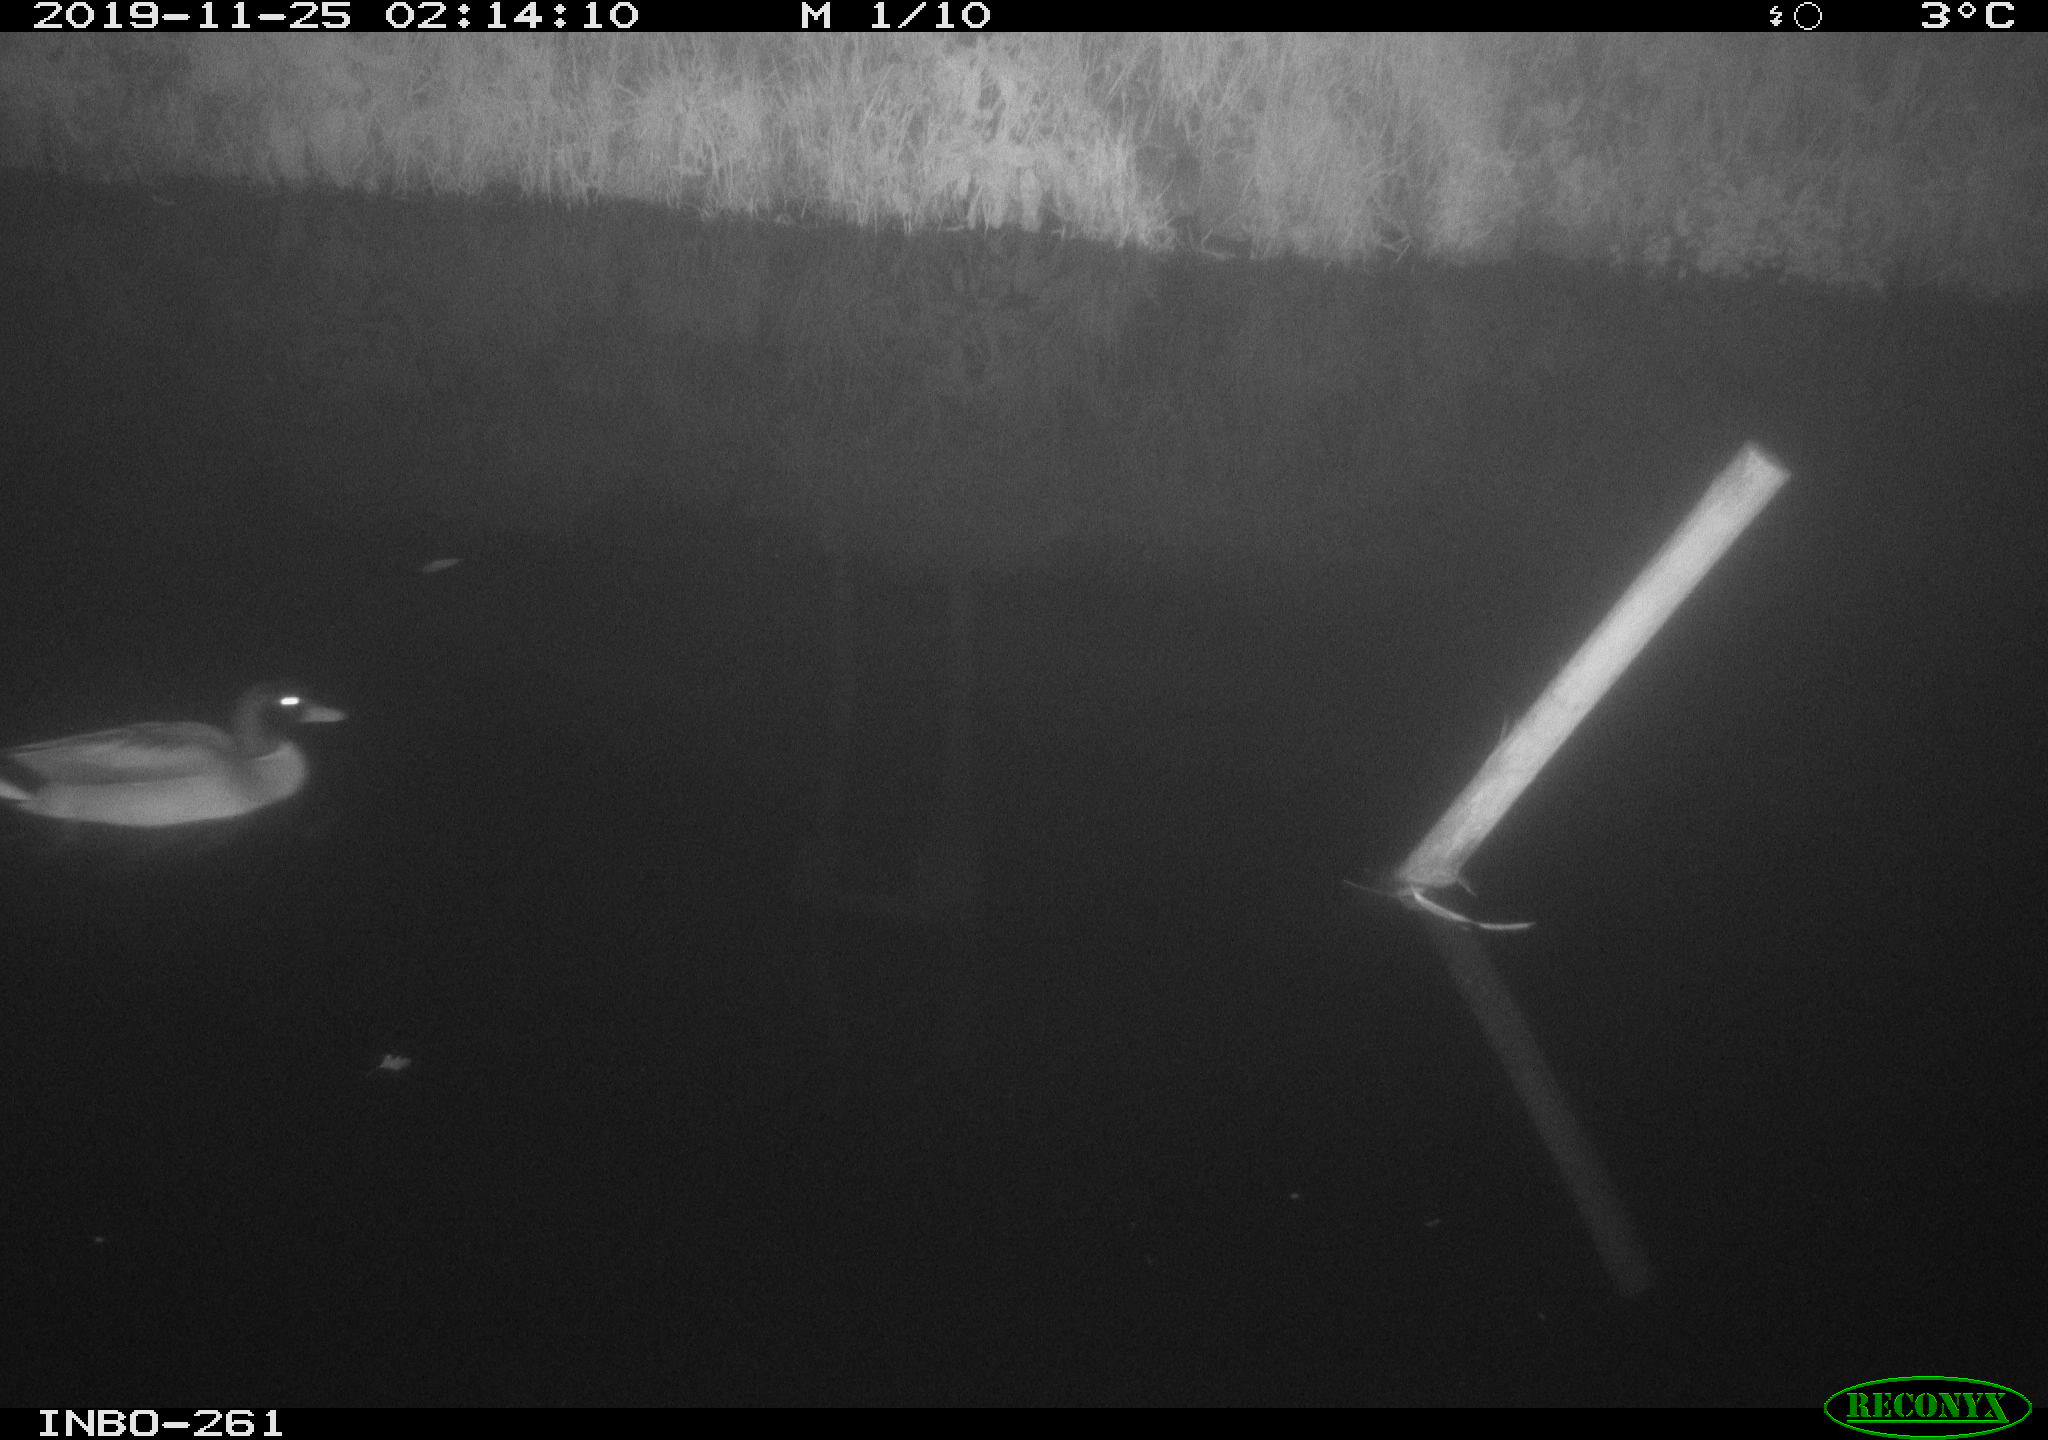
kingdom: Animalia
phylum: Chordata
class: Aves
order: Anseriformes
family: Anatidae
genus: Anas
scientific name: Anas platyrhynchos
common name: Mallard
